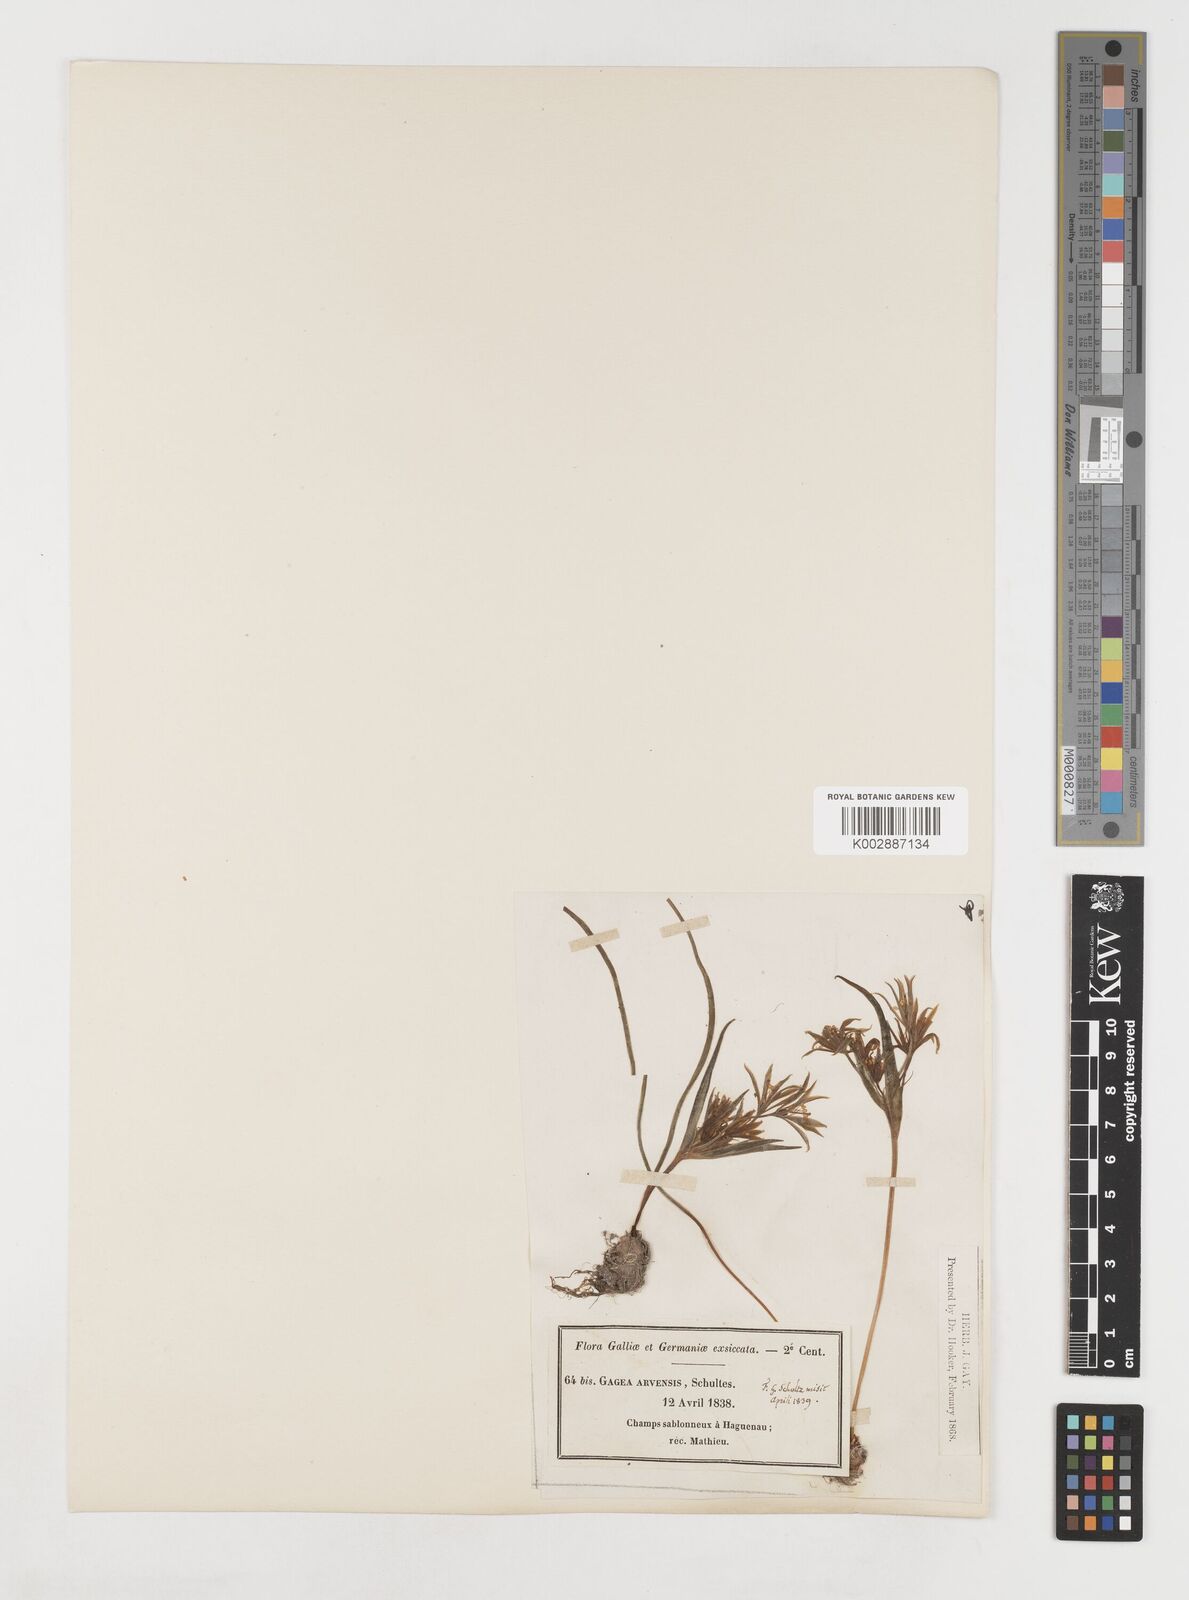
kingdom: Plantae
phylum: Tracheophyta
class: Liliopsida
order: Liliales
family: Liliaceae
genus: Gagea
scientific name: Gagea minima
